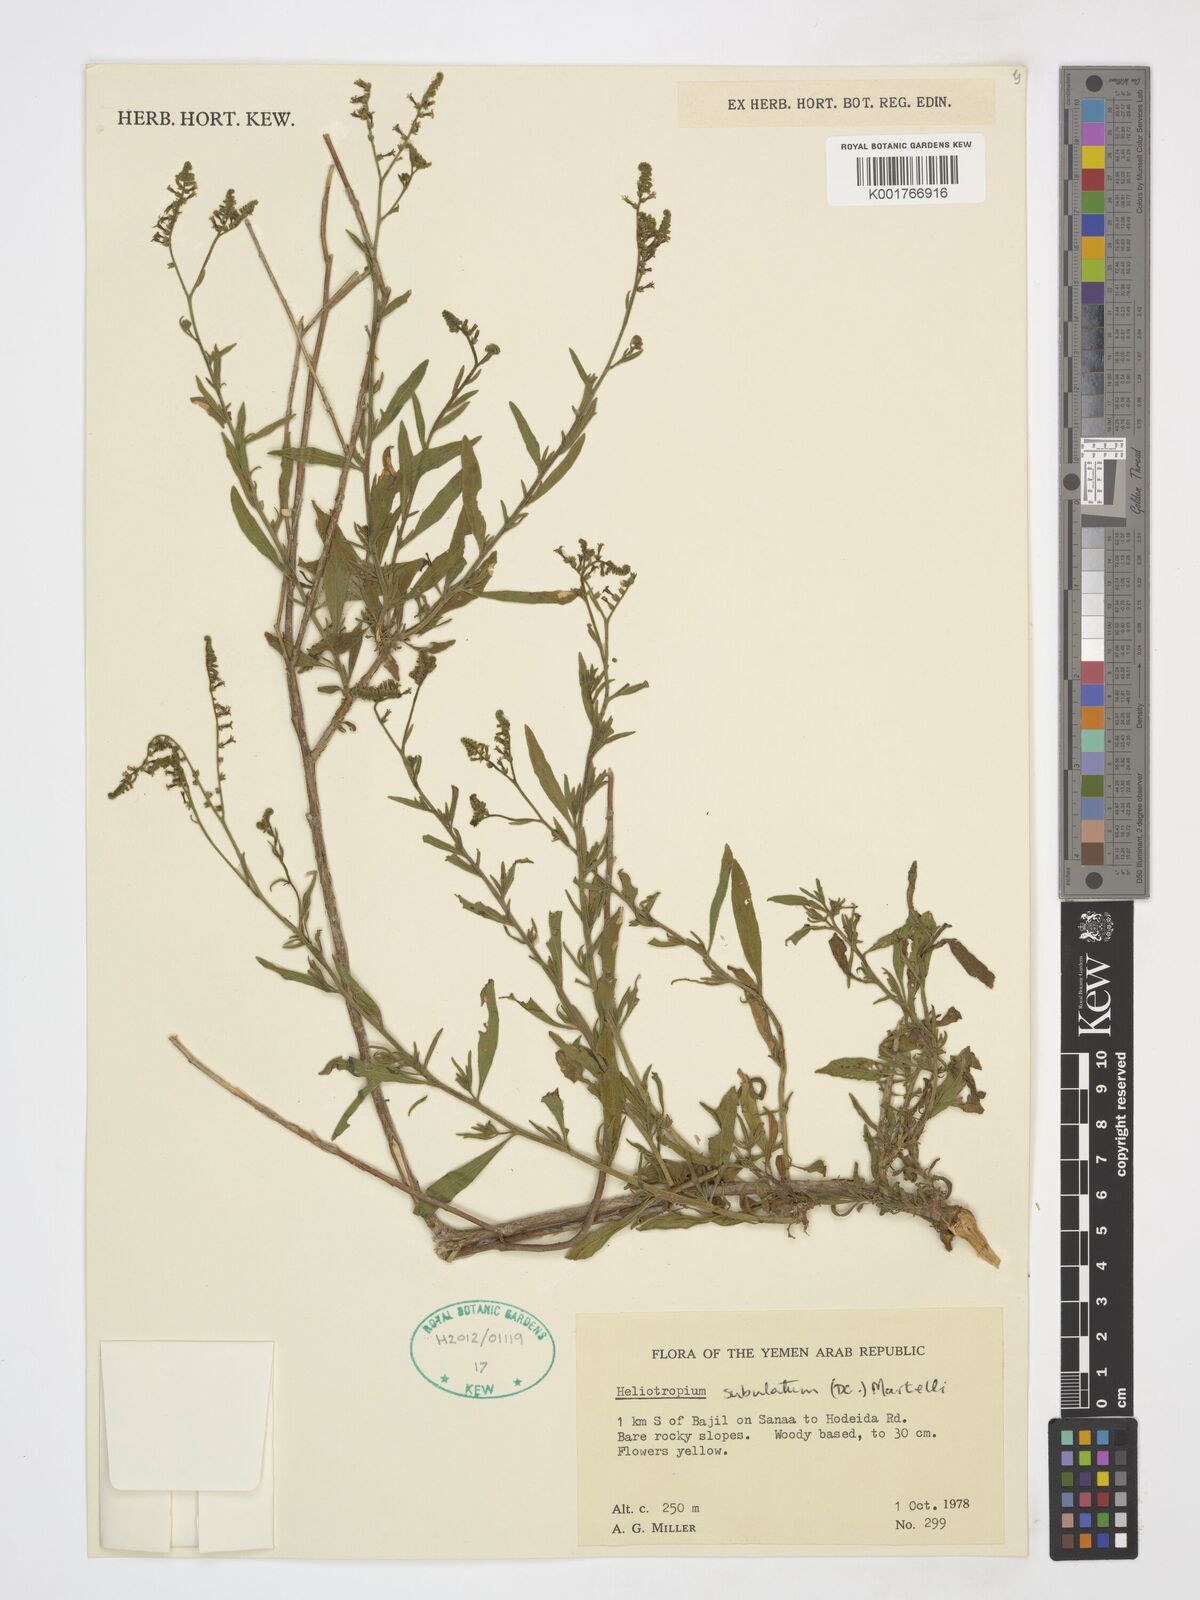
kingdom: Plantae
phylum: Tracheophyta
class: Magnoliopsida
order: Boraginales
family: Heliotropiaceae
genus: Heliotropium
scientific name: Heliotropium zeylanicum
